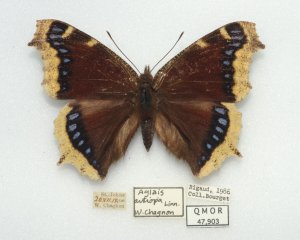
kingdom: Animalia
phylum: Arthropoda
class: Insecta
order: Lepidoptera
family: Nymphalidae
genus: Nymphalis
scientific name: Nymphalis antiopa
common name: Mourning Cloak
